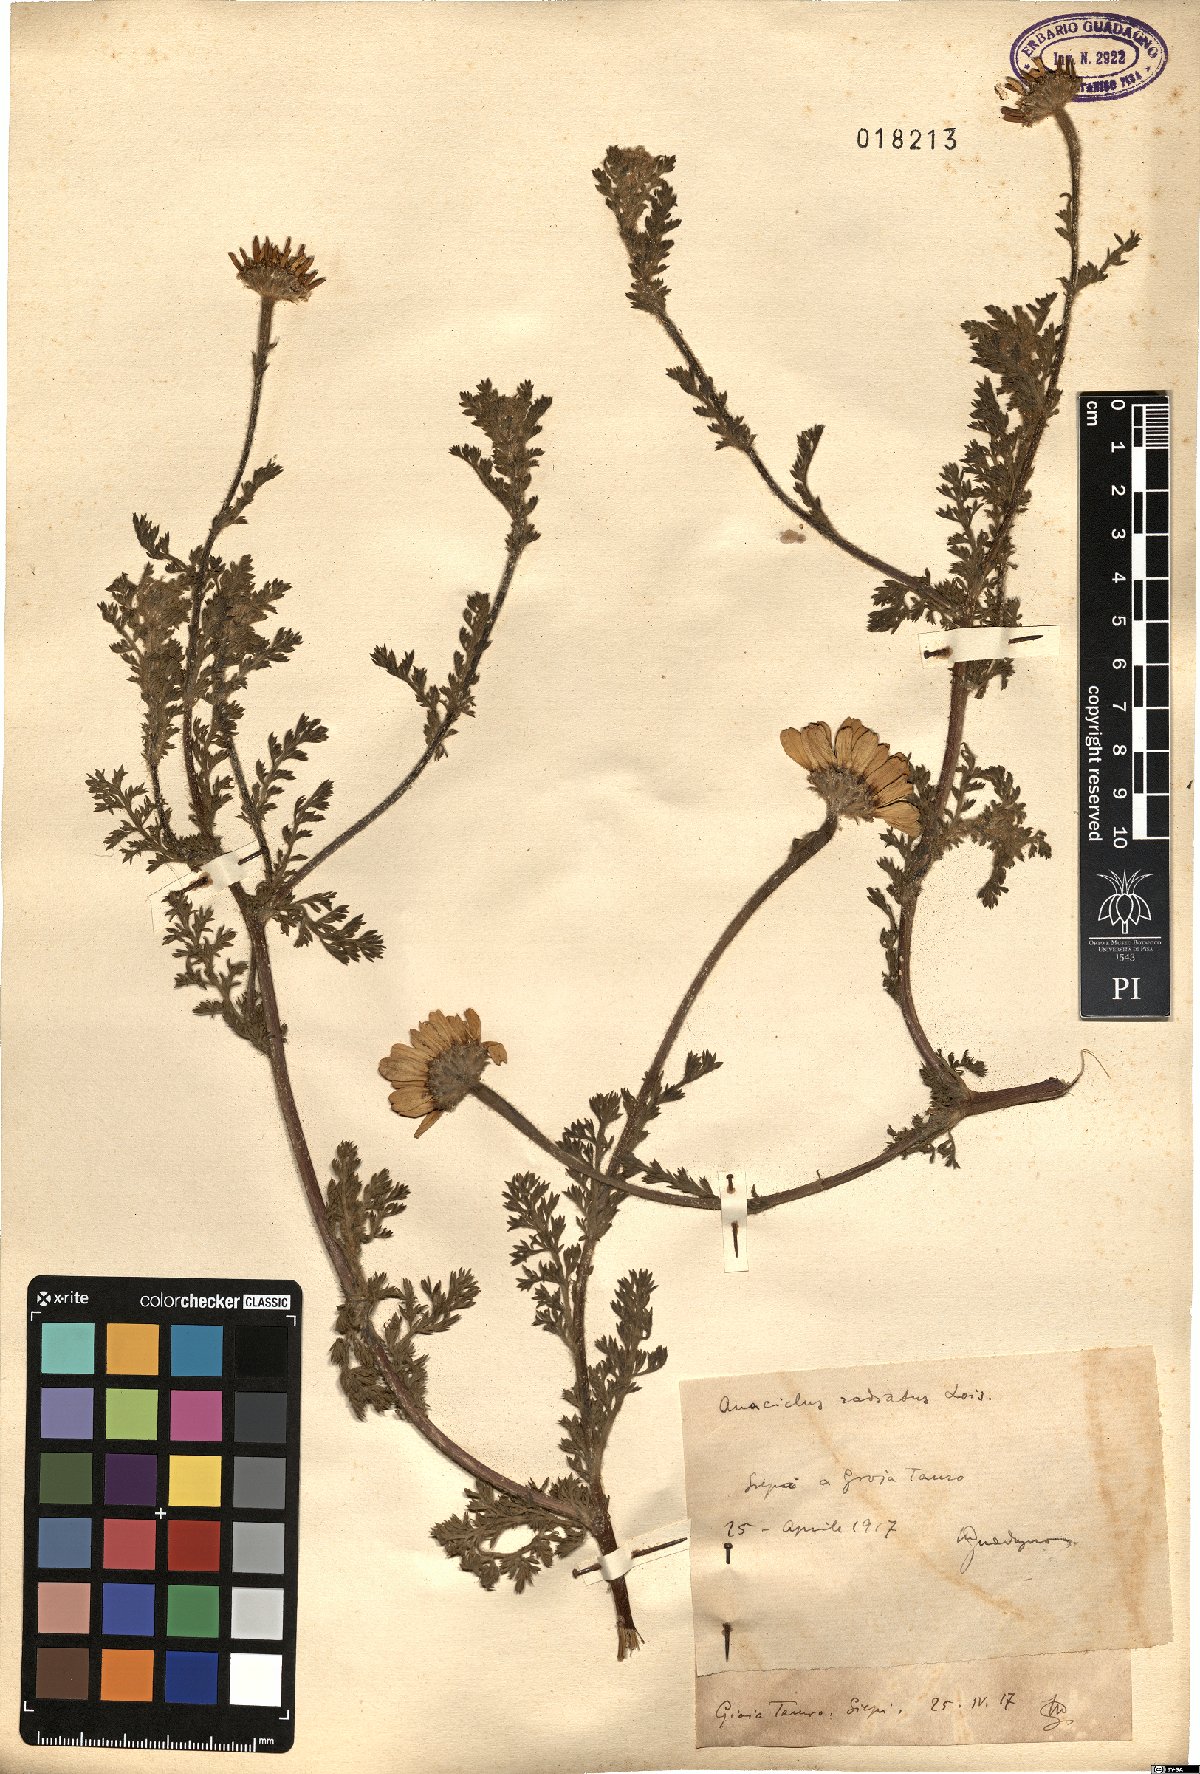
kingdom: Plantae
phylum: Tracheophyta
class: Magnoliopsida
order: Asterales
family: Asteraceae
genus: Anacyclus
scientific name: Anacyclus radiatus
